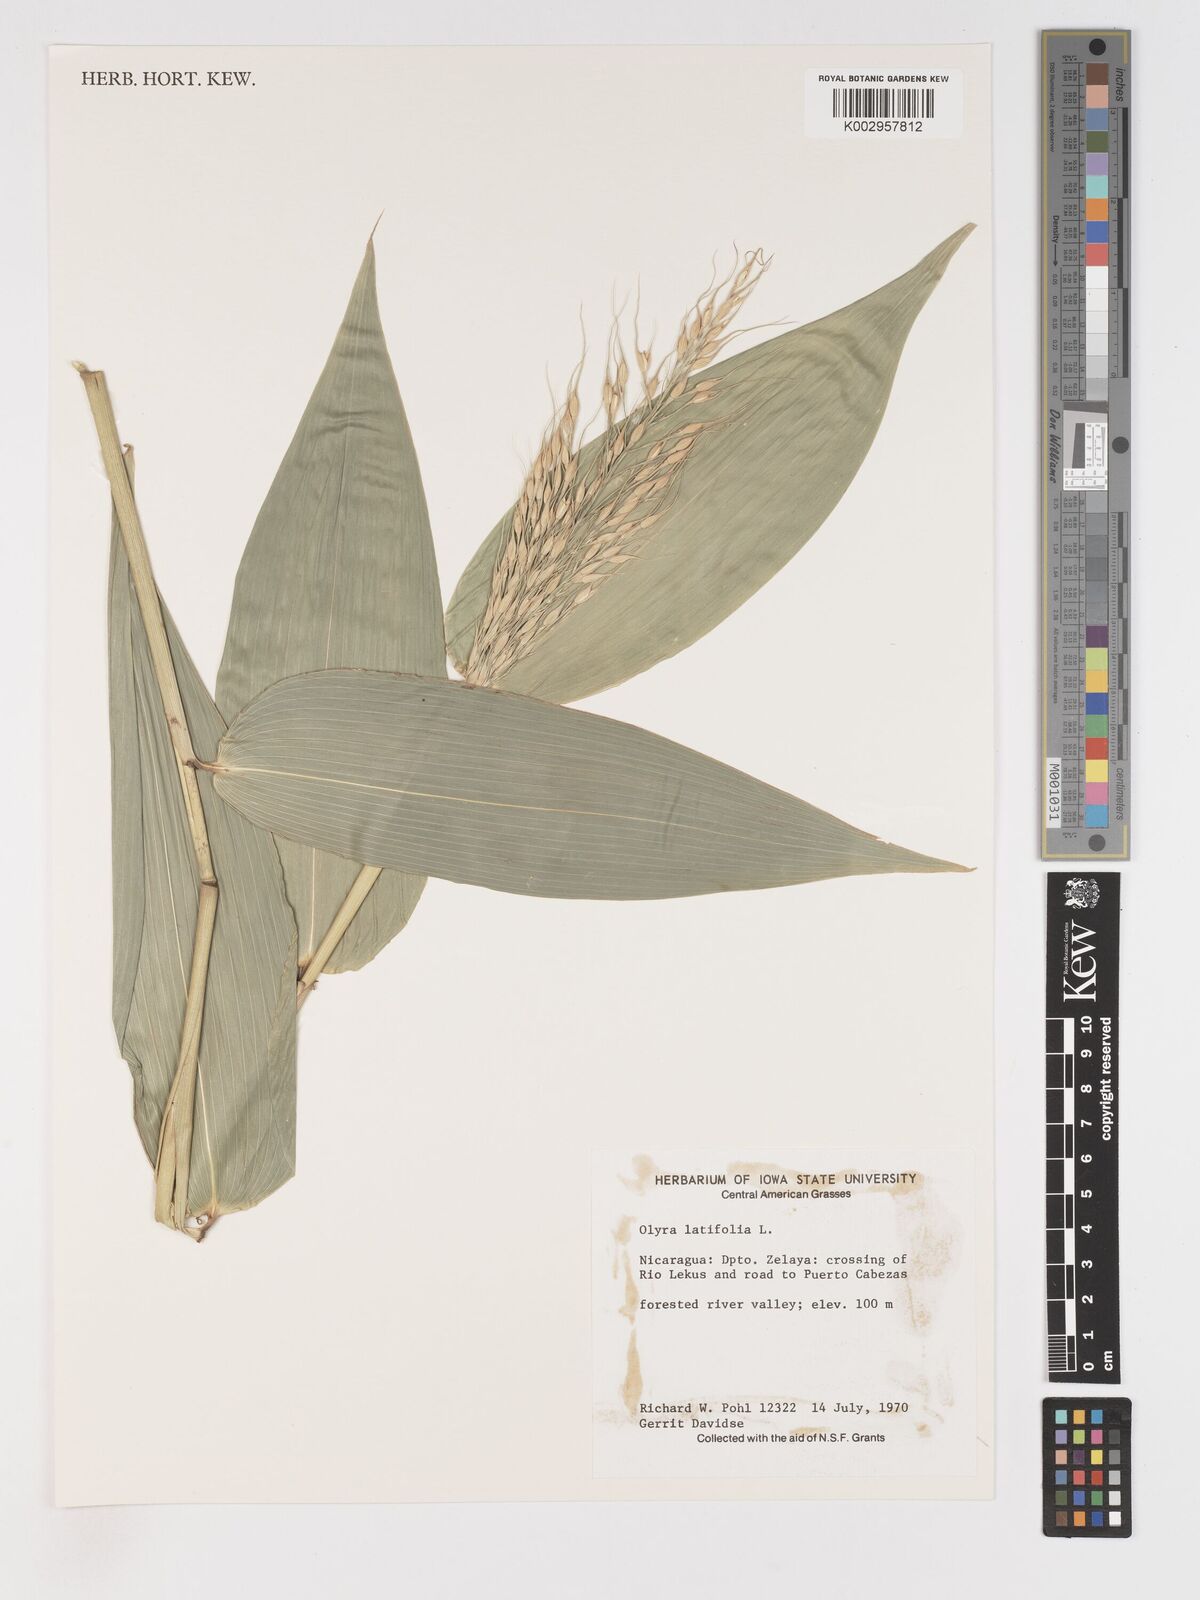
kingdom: Plantae
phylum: Tracheophyta
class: Liliopsida
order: Poales
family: Poaceae
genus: Olyra
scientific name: Olyra latifolia
